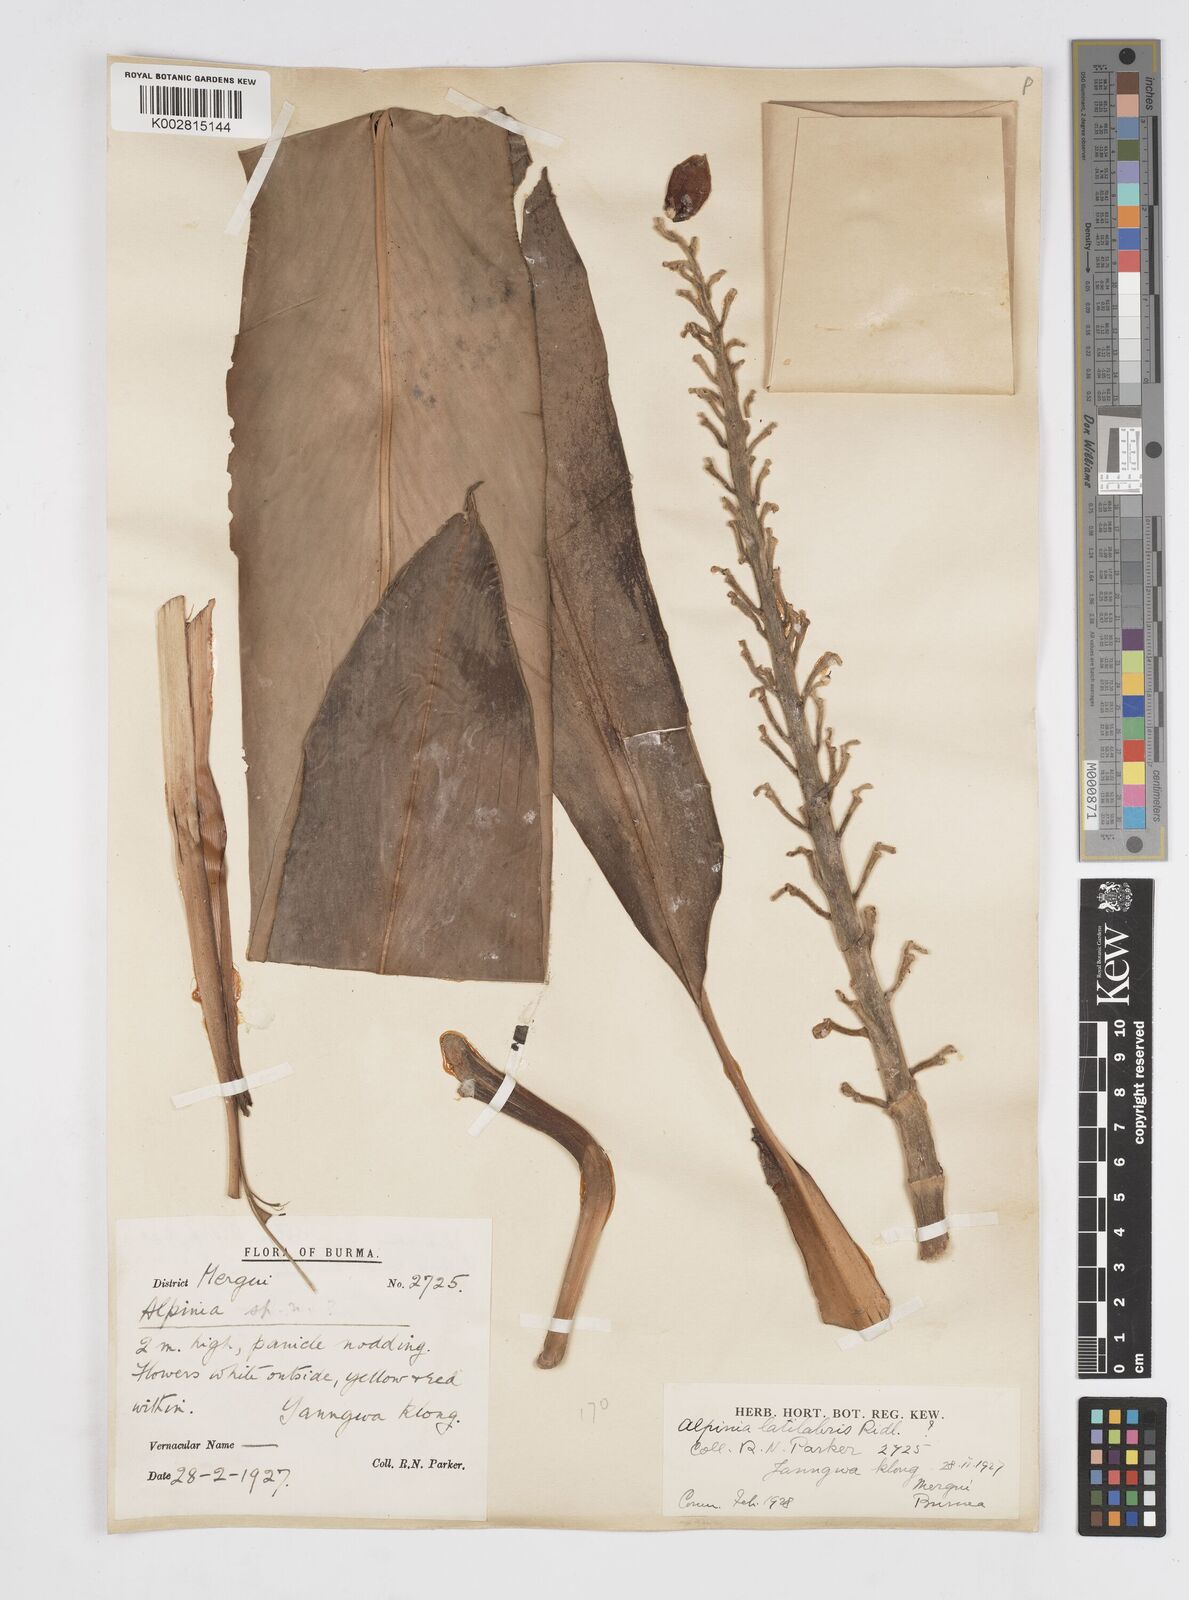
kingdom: Plantae
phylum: Tracheophyta
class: Liliopsida
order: Zingiberales
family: Zingiberaceae
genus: Alpinia
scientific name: Alpinia latilabris
